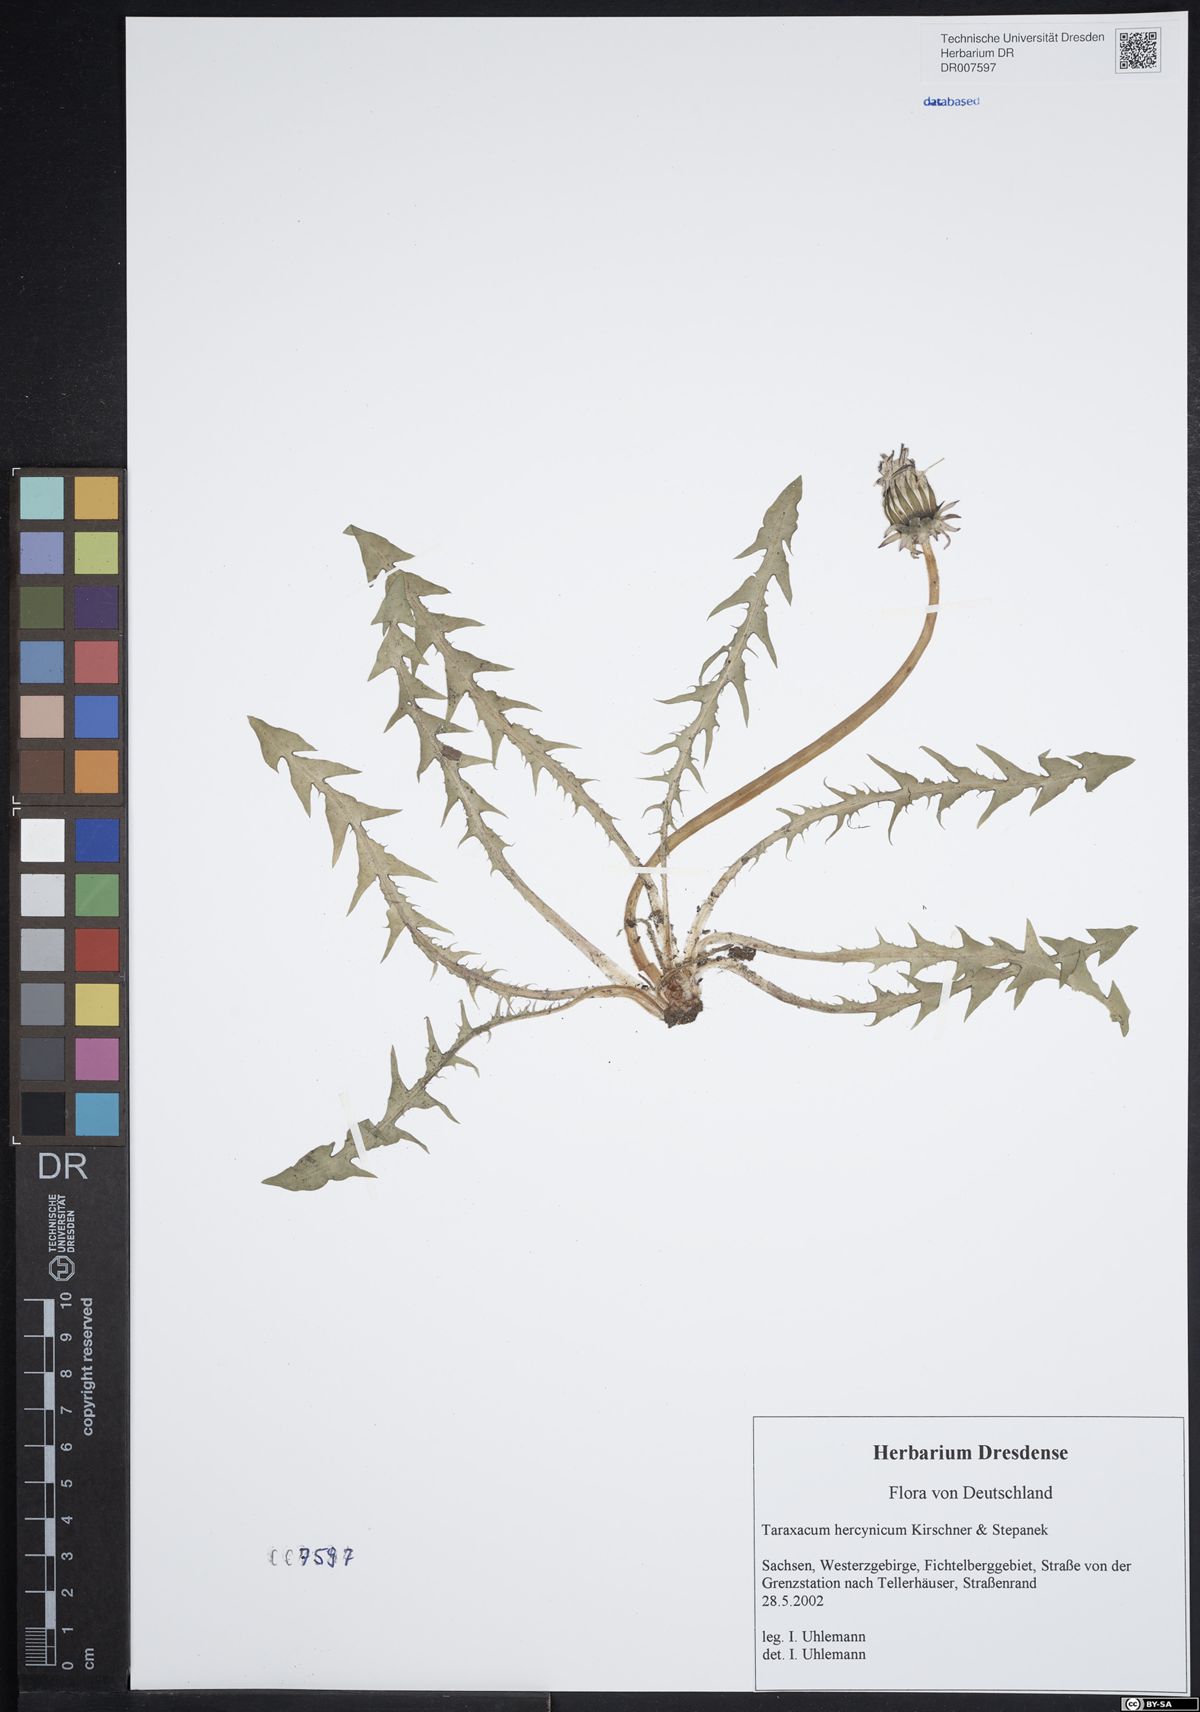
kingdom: Plantae
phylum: Tracheophyta
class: Magnoliopsida
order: Asterales
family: Asteraceae
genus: Taraxacum
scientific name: Taraxacum hercynicum
